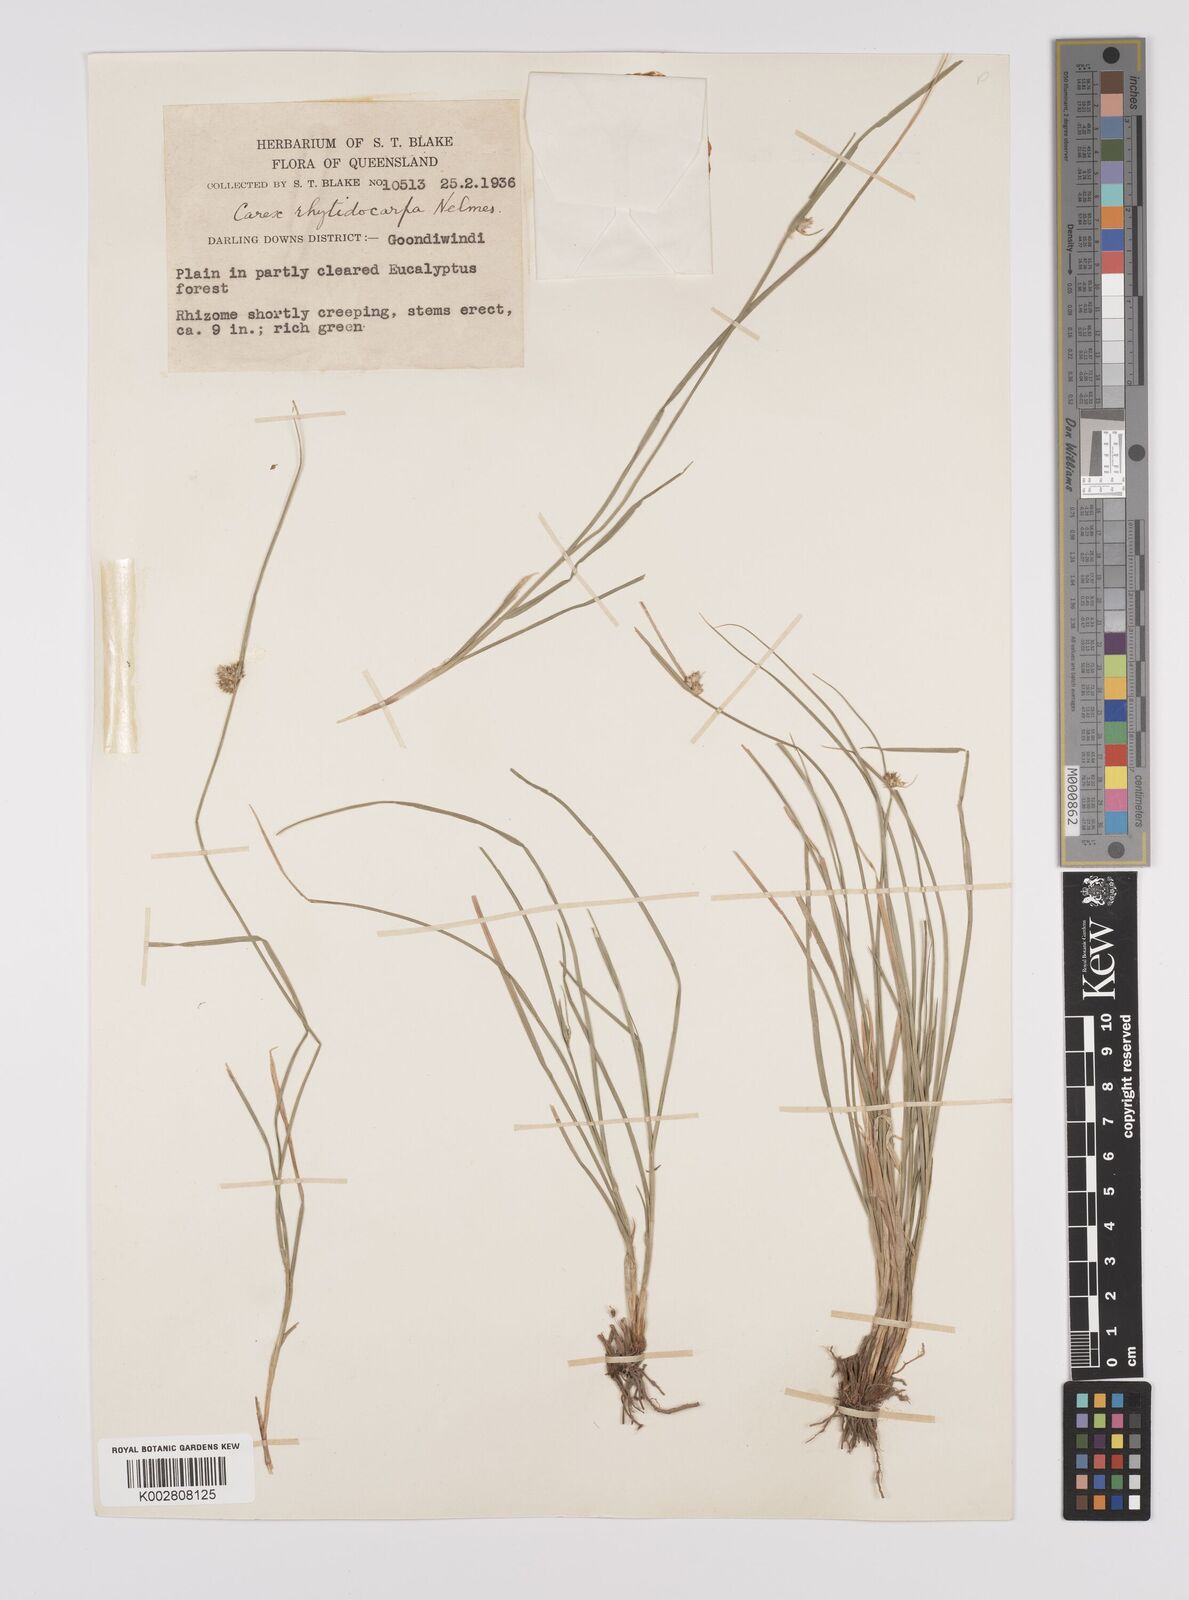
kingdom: Plantae
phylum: Tracheophyta
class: Liliopsida
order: Poales
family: Cyperaceae
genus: Carex
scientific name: Carex inversa
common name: Knob sedge
